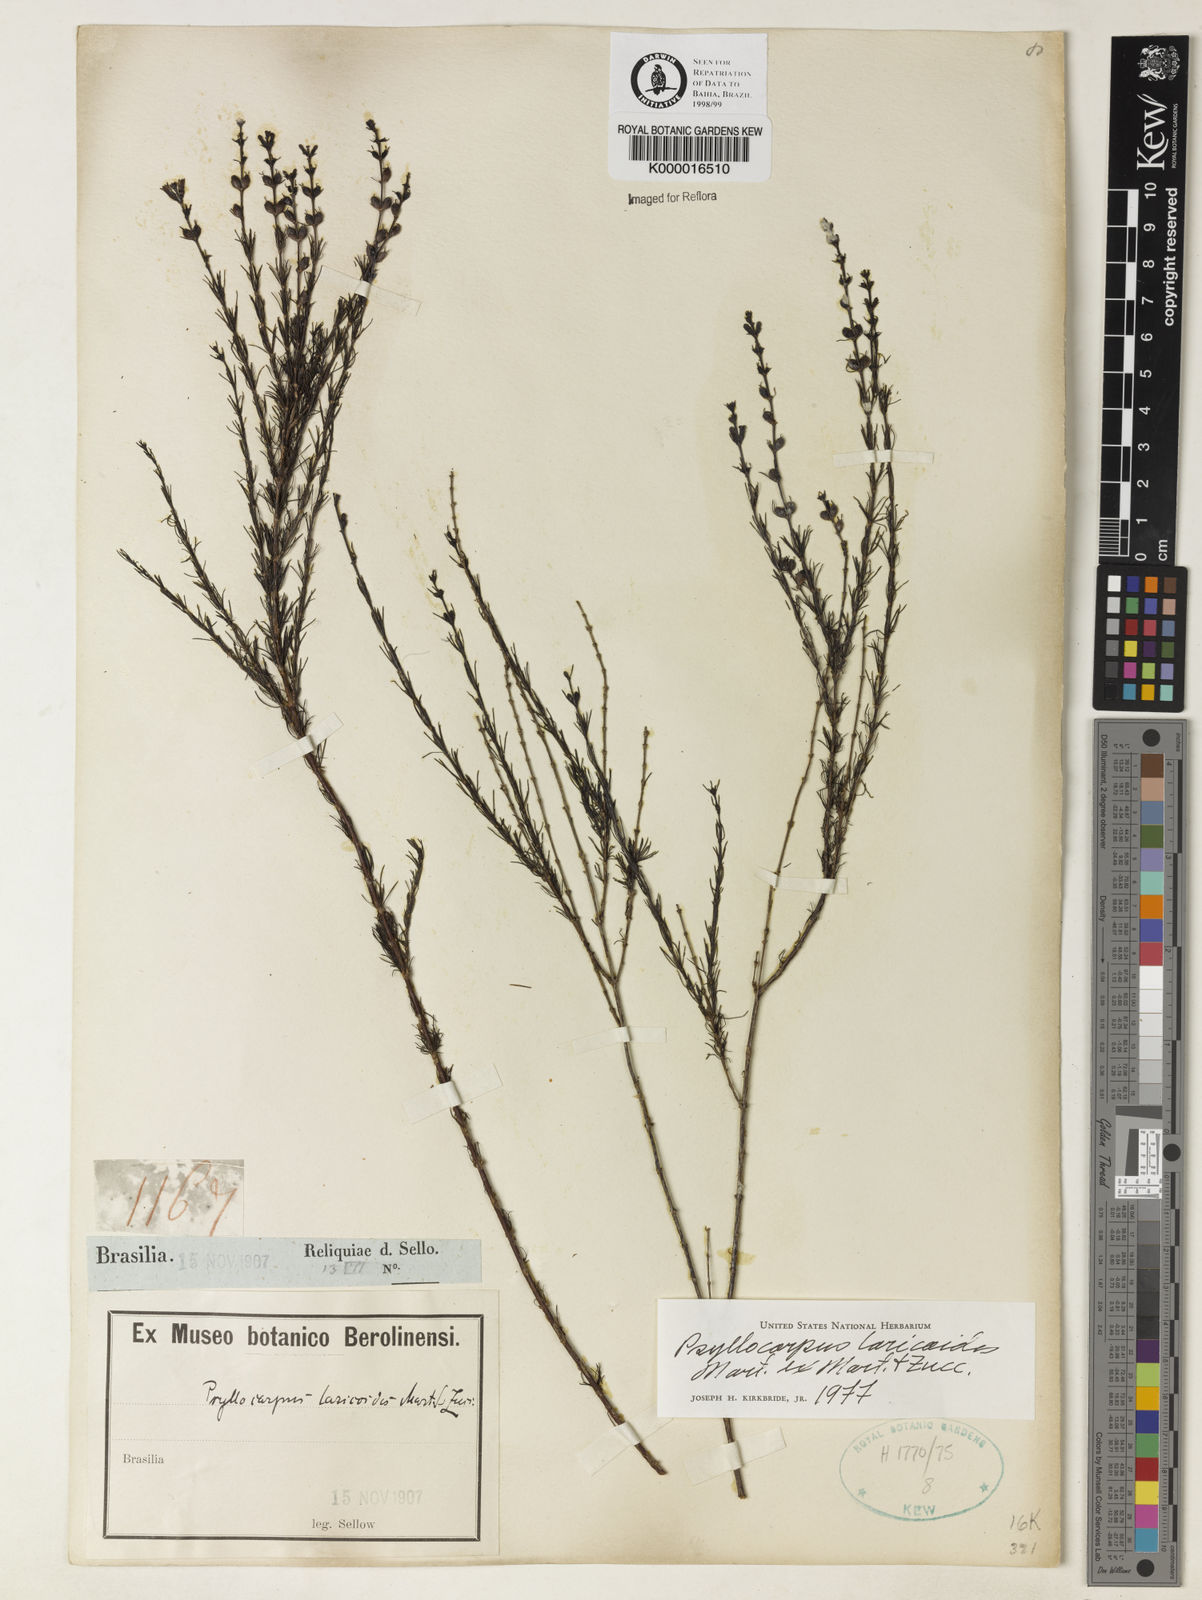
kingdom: Plantae
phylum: Tracheophyta
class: Magnoliopsida
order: Gentianales
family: Rubiaceae
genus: Psyllocarpus
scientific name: Psyllocarpus laricoides
